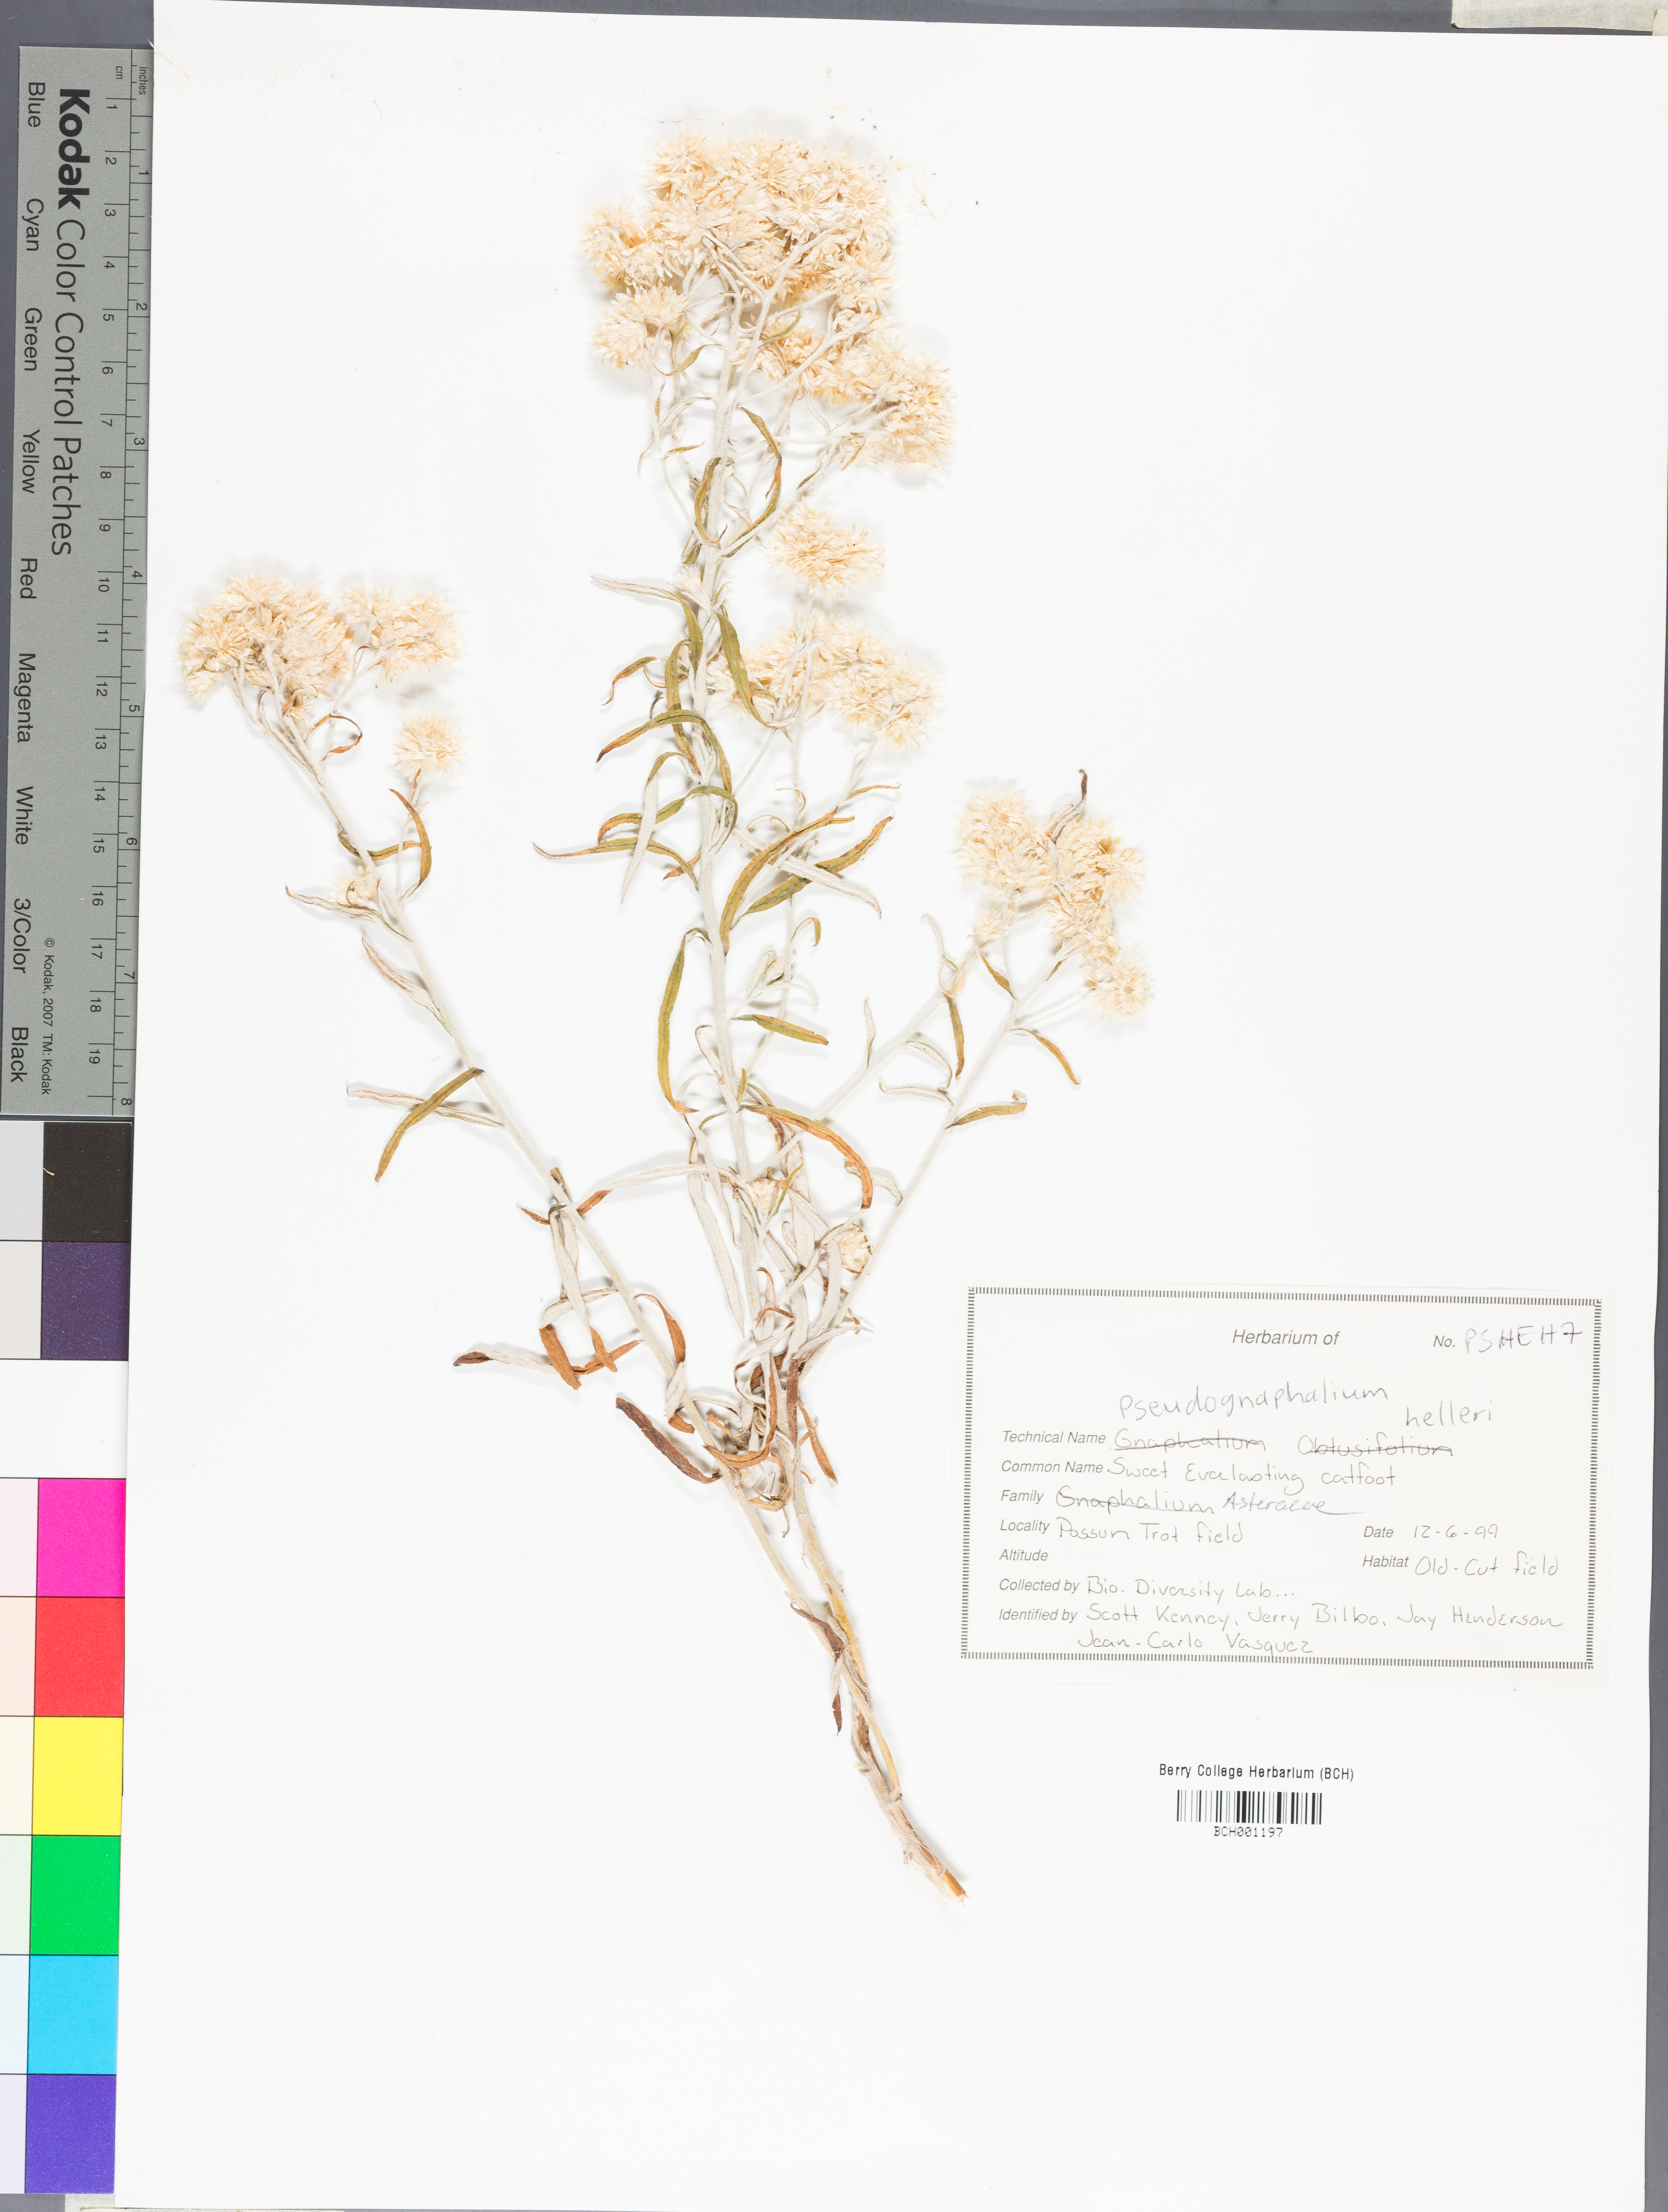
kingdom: Plantae
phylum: Tracheophyta
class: Magnoliopsida
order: Asterales
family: Asteraceae
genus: Pseudognaphalium
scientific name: Pseudognaphalium helleri
